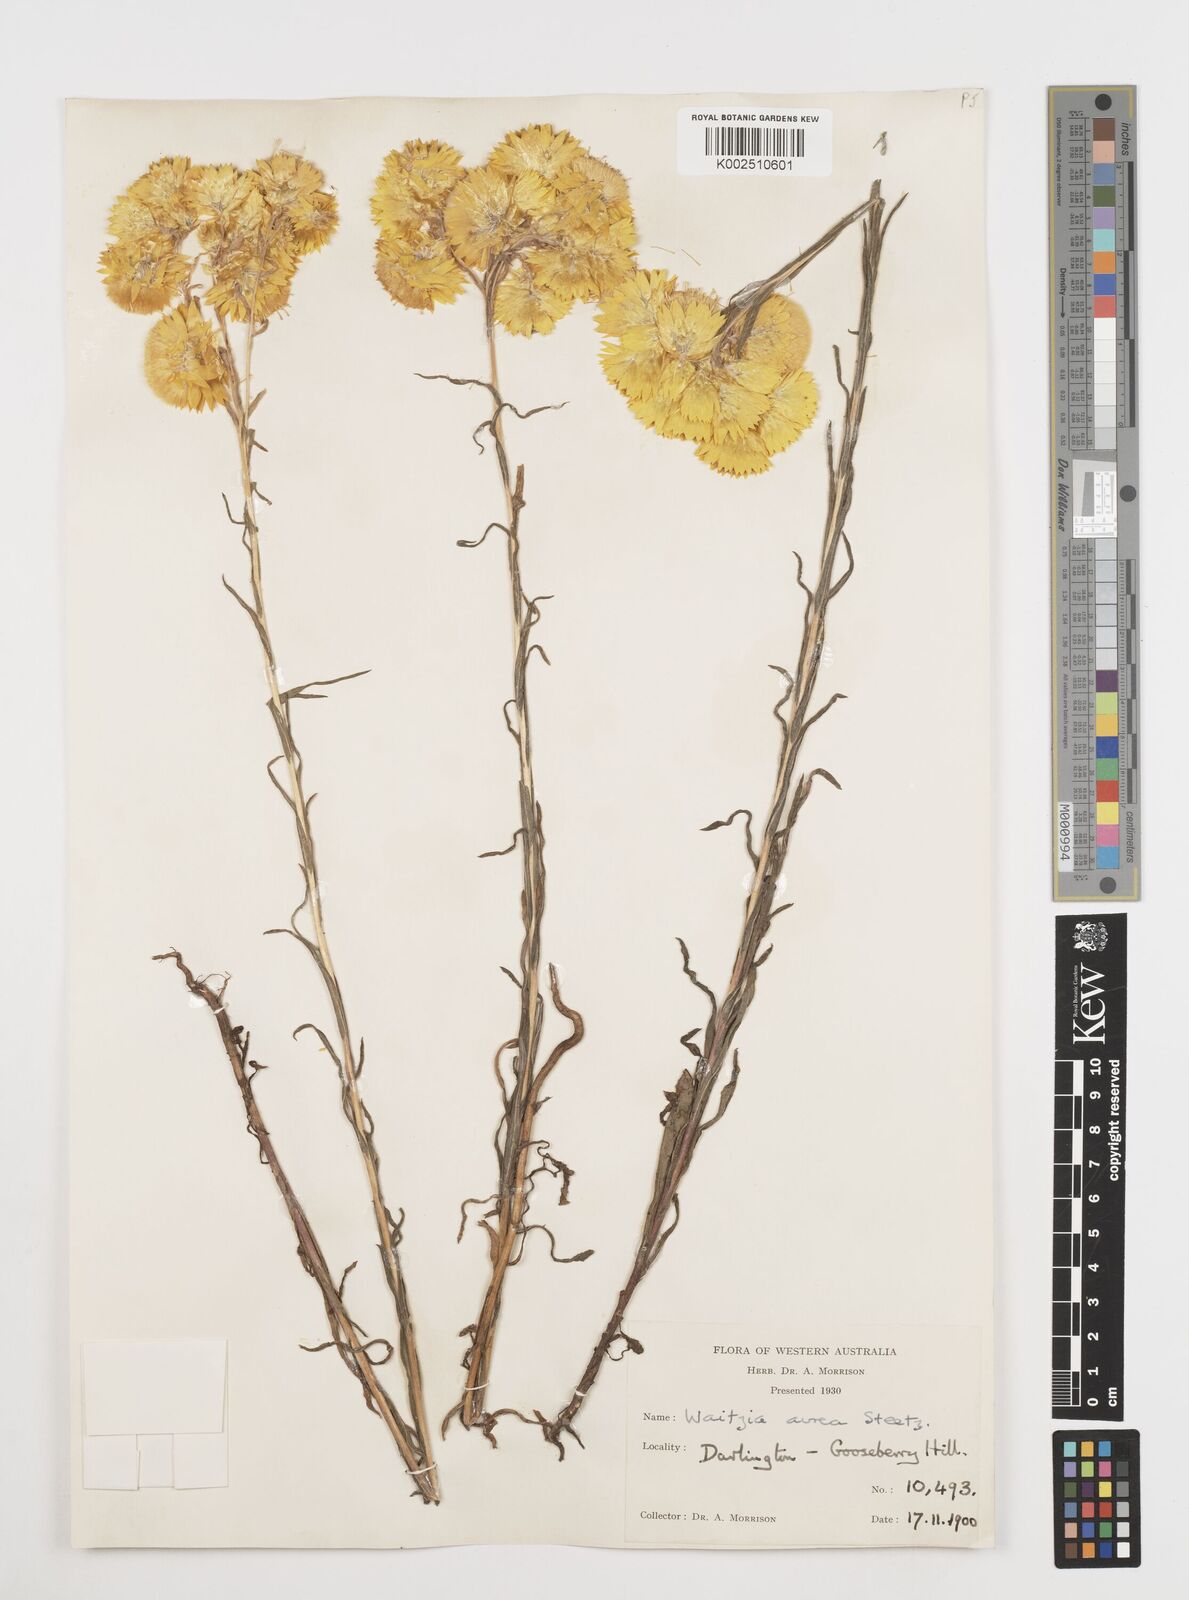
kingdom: Plantae
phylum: Tracheophyta
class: Magnoliopsida
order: Asterales
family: Asteraceae
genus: Waitzia
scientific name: Waitzia nitida
